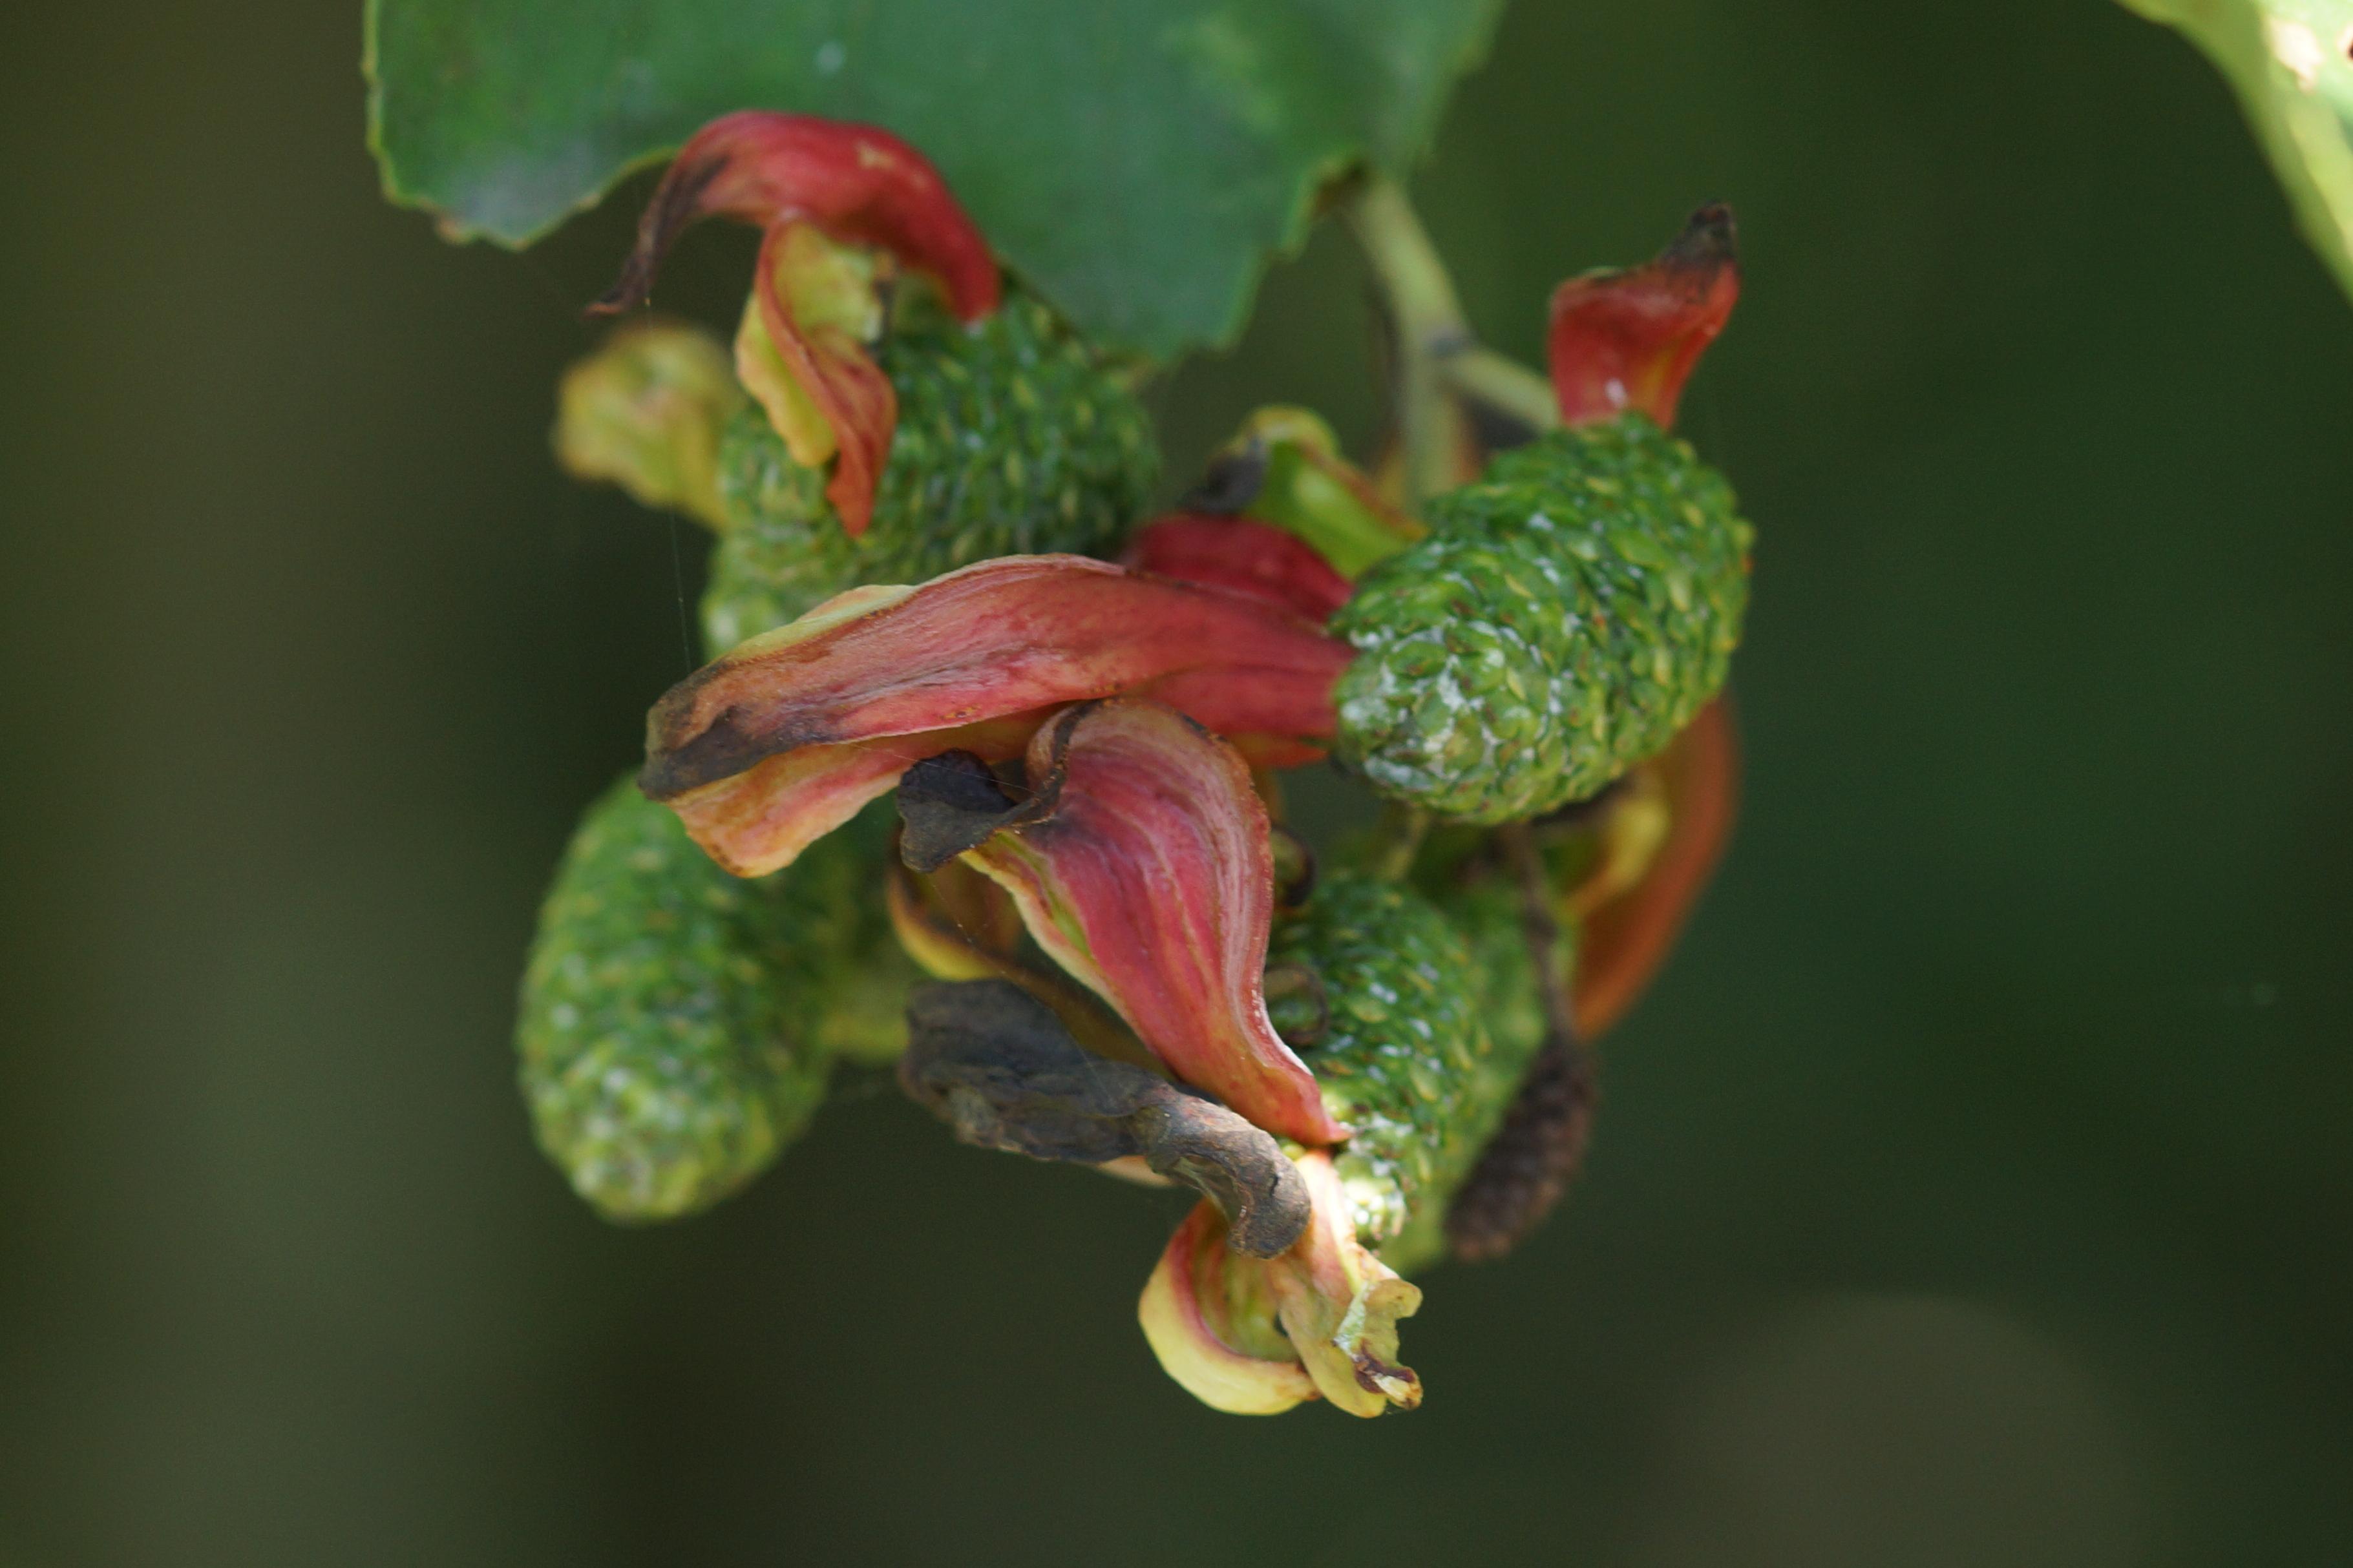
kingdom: Fungi
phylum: Ascomycota
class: Taphrinomycetes
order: Taphrinales
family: Taphrinaceae
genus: Taphrina
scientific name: Taphrina alni
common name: Alder tongue
